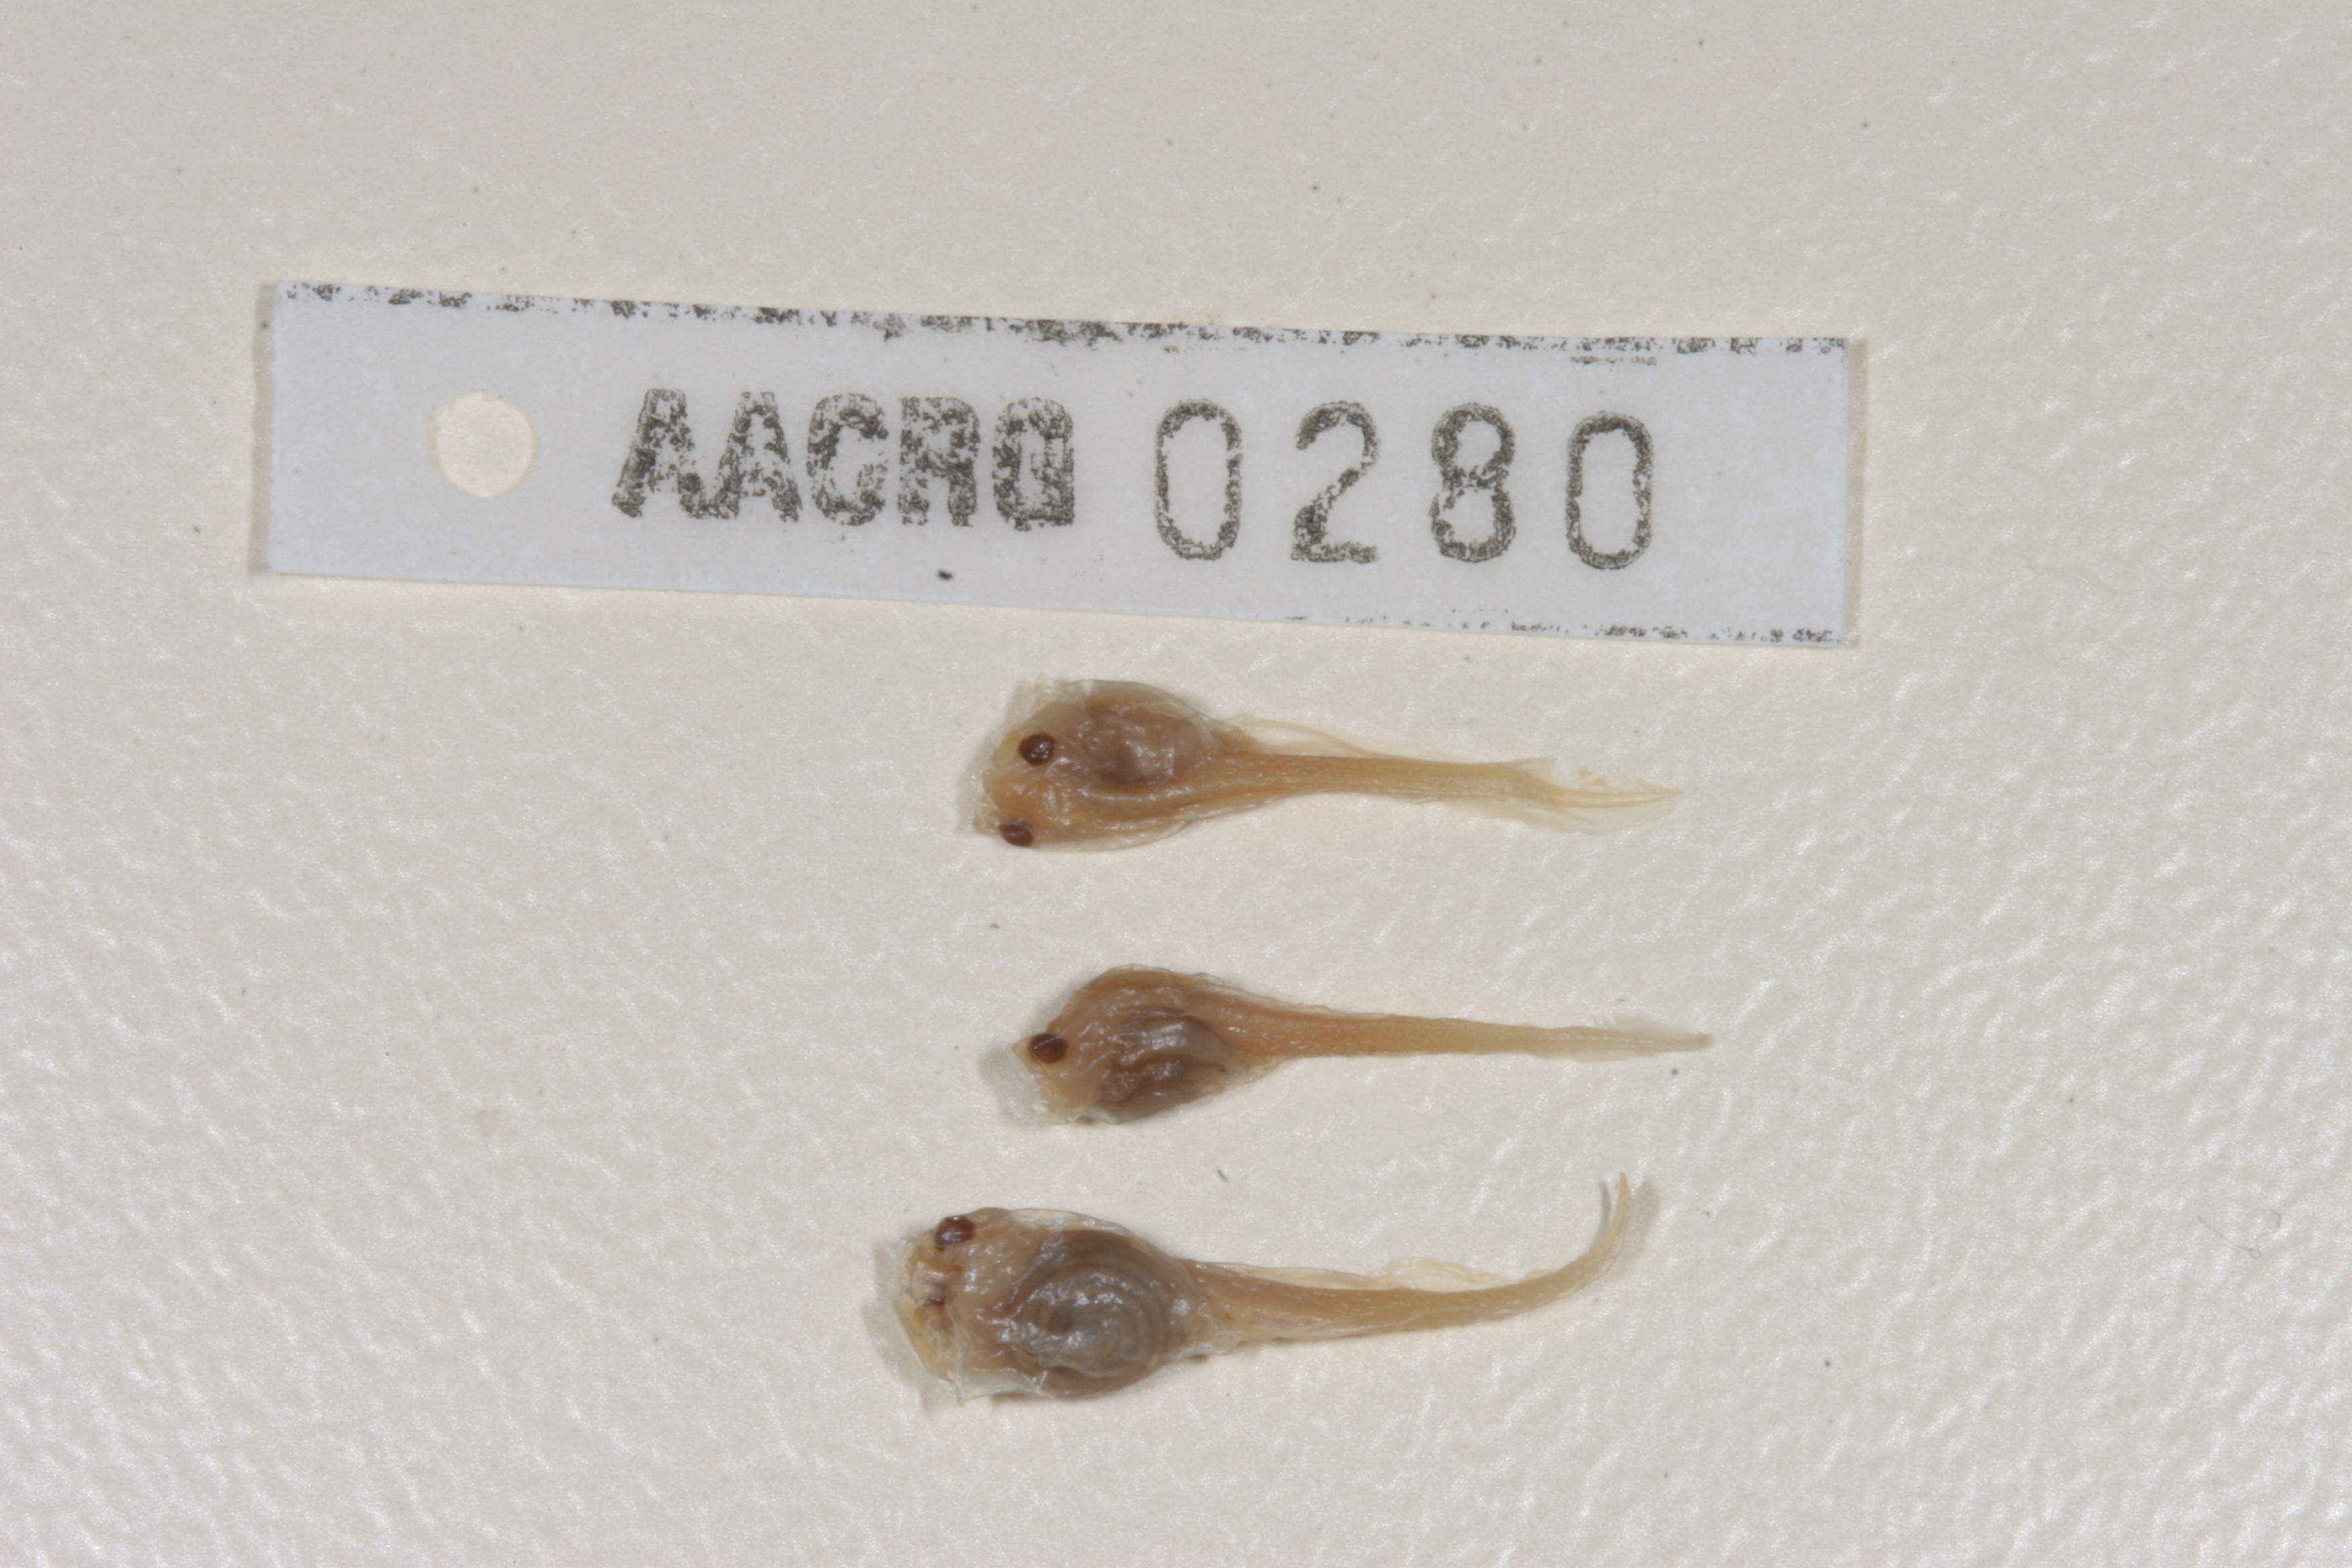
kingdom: Animalia
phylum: Chordata
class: Amphibia
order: Anura
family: Pyxicephalidae
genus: Cacosternum
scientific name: Cacosternum boettgeri
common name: Boettger's frog
